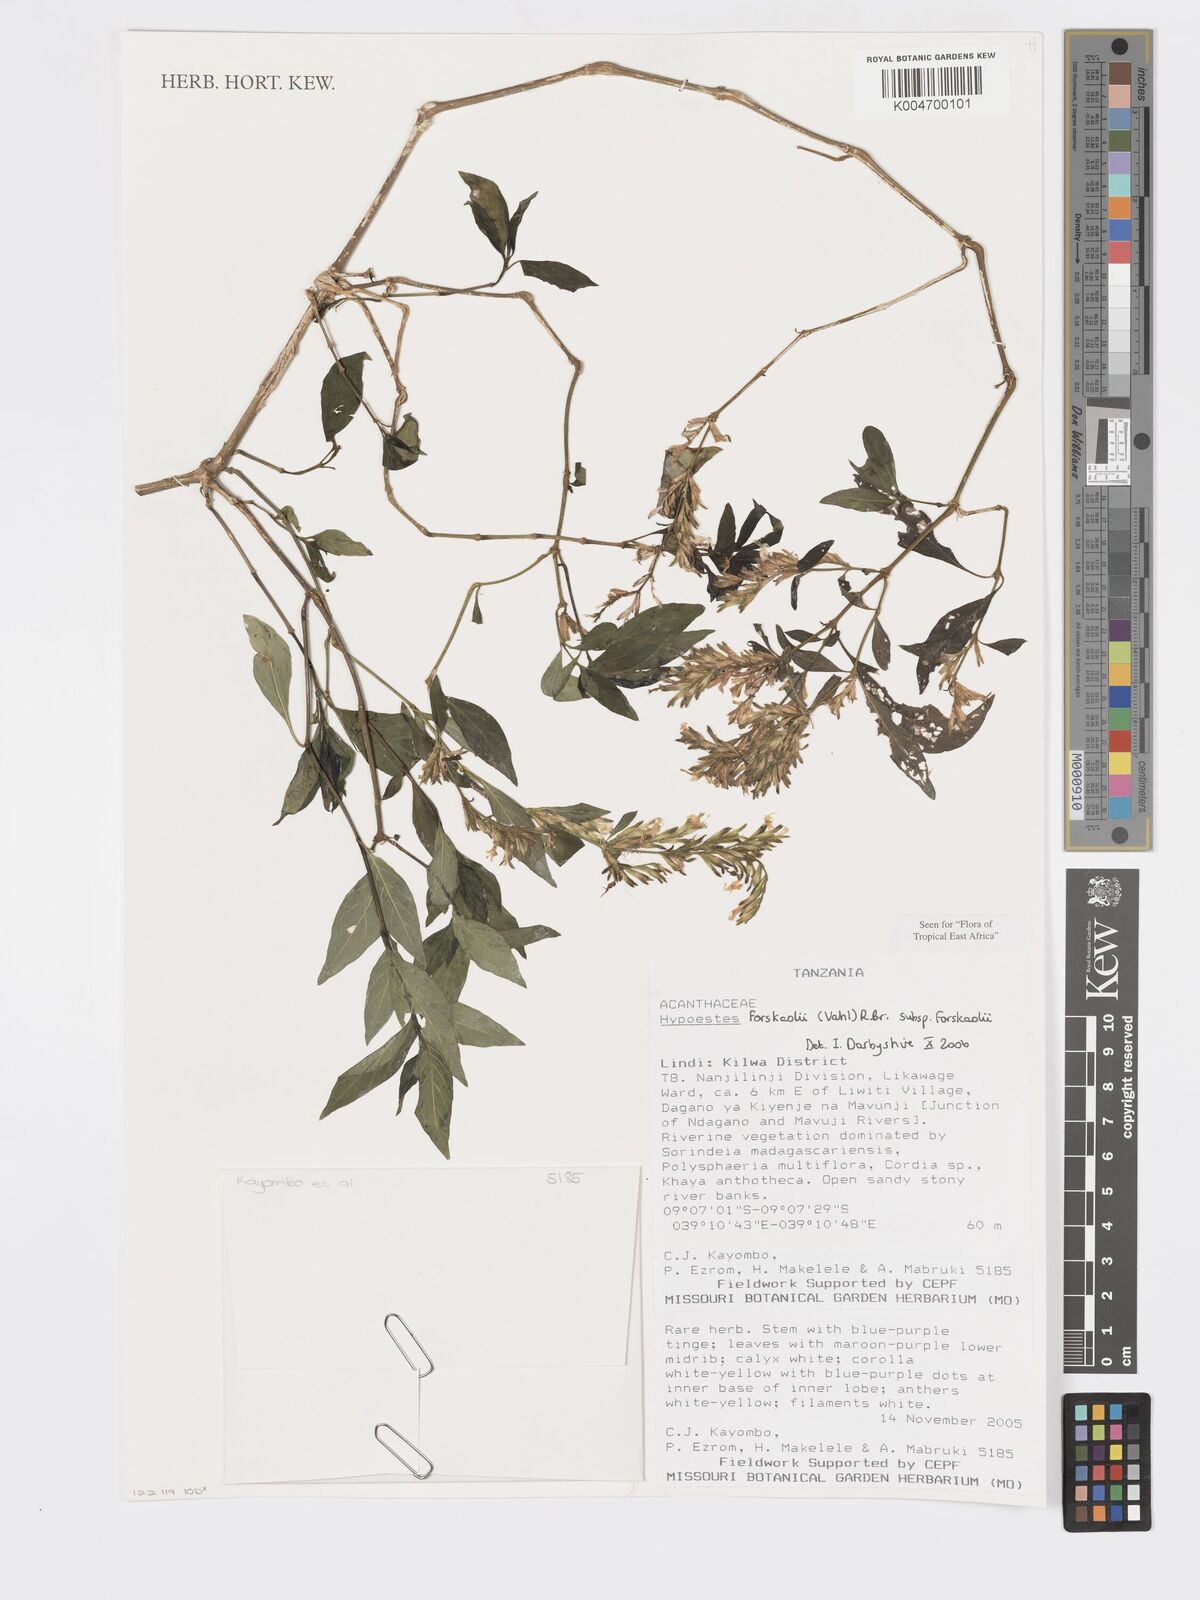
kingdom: Plantae
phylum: Tracheophyta
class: Magnoliopsida
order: Lamiales
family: Acanthaceae
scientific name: Acanthaceae
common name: Acanthaceae
